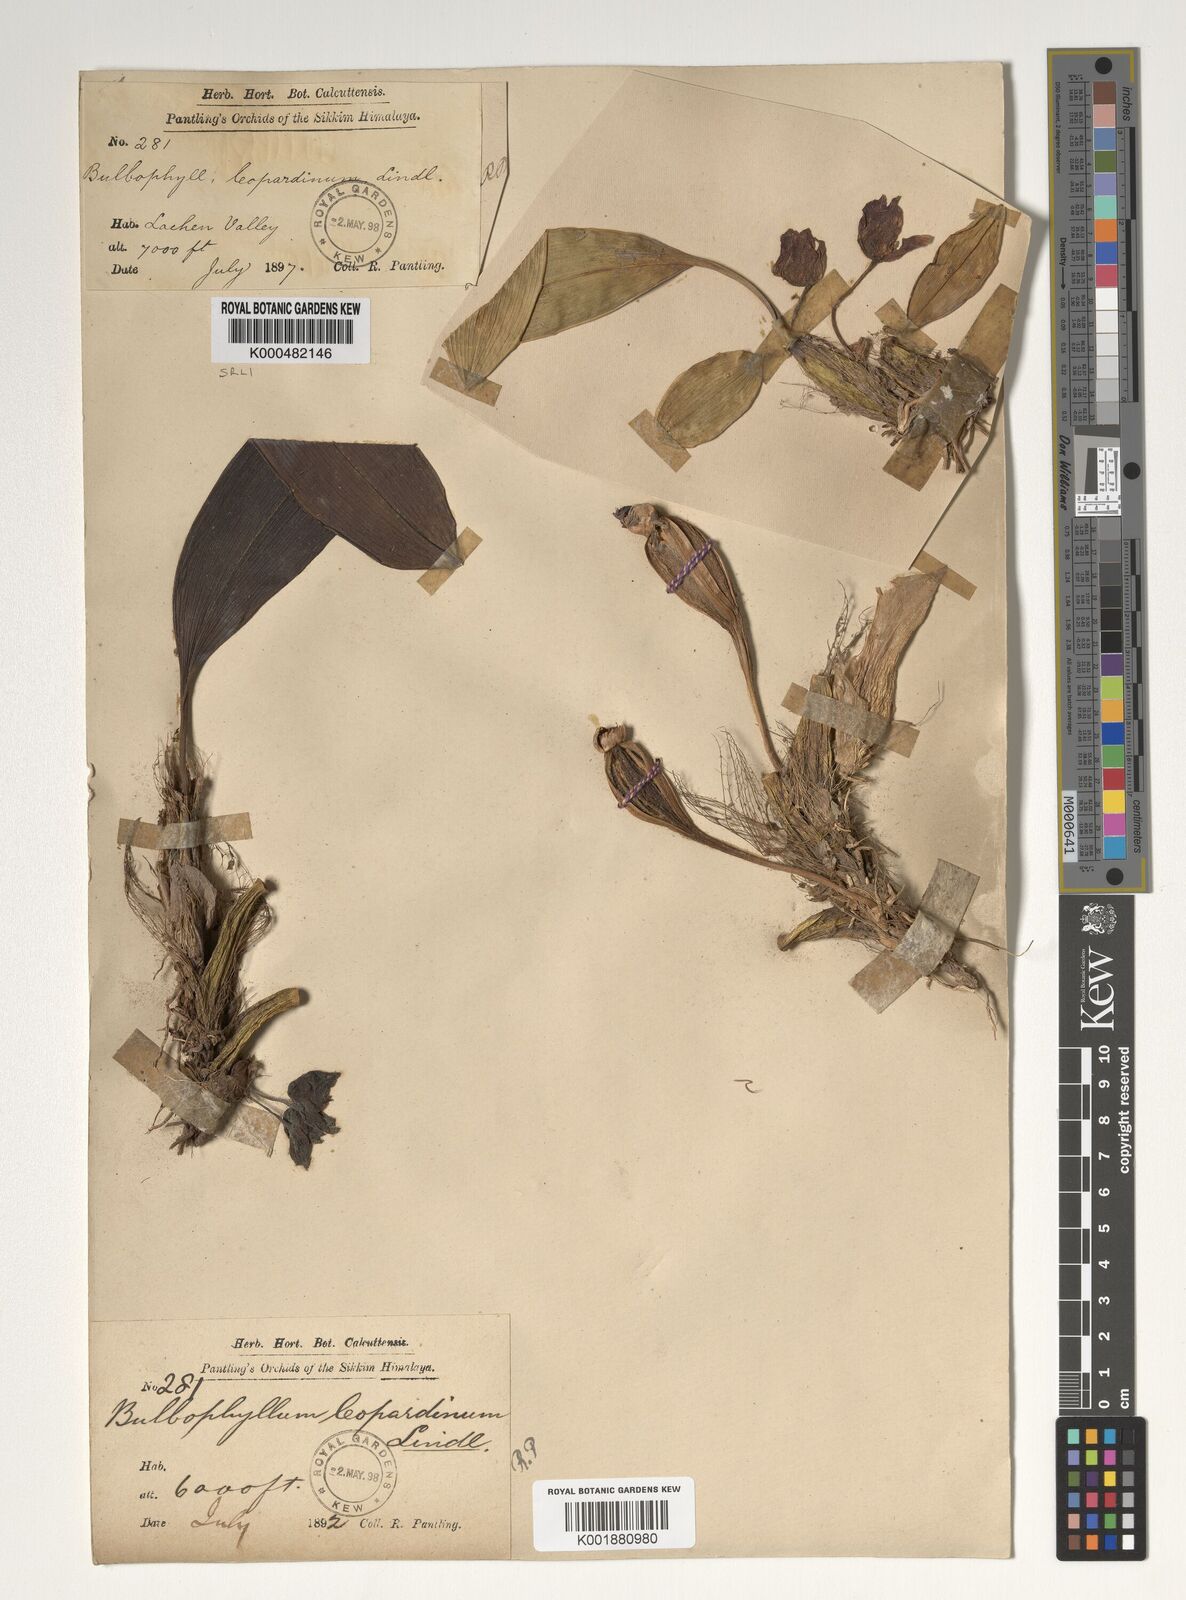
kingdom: Plantae
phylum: Tracheophyta
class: Liliopsida
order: Asparagales
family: Orchidaceae
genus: Bulbophyllum
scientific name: Bulbophyllum leopardinum
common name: Leopard spotted bulbophyllum
